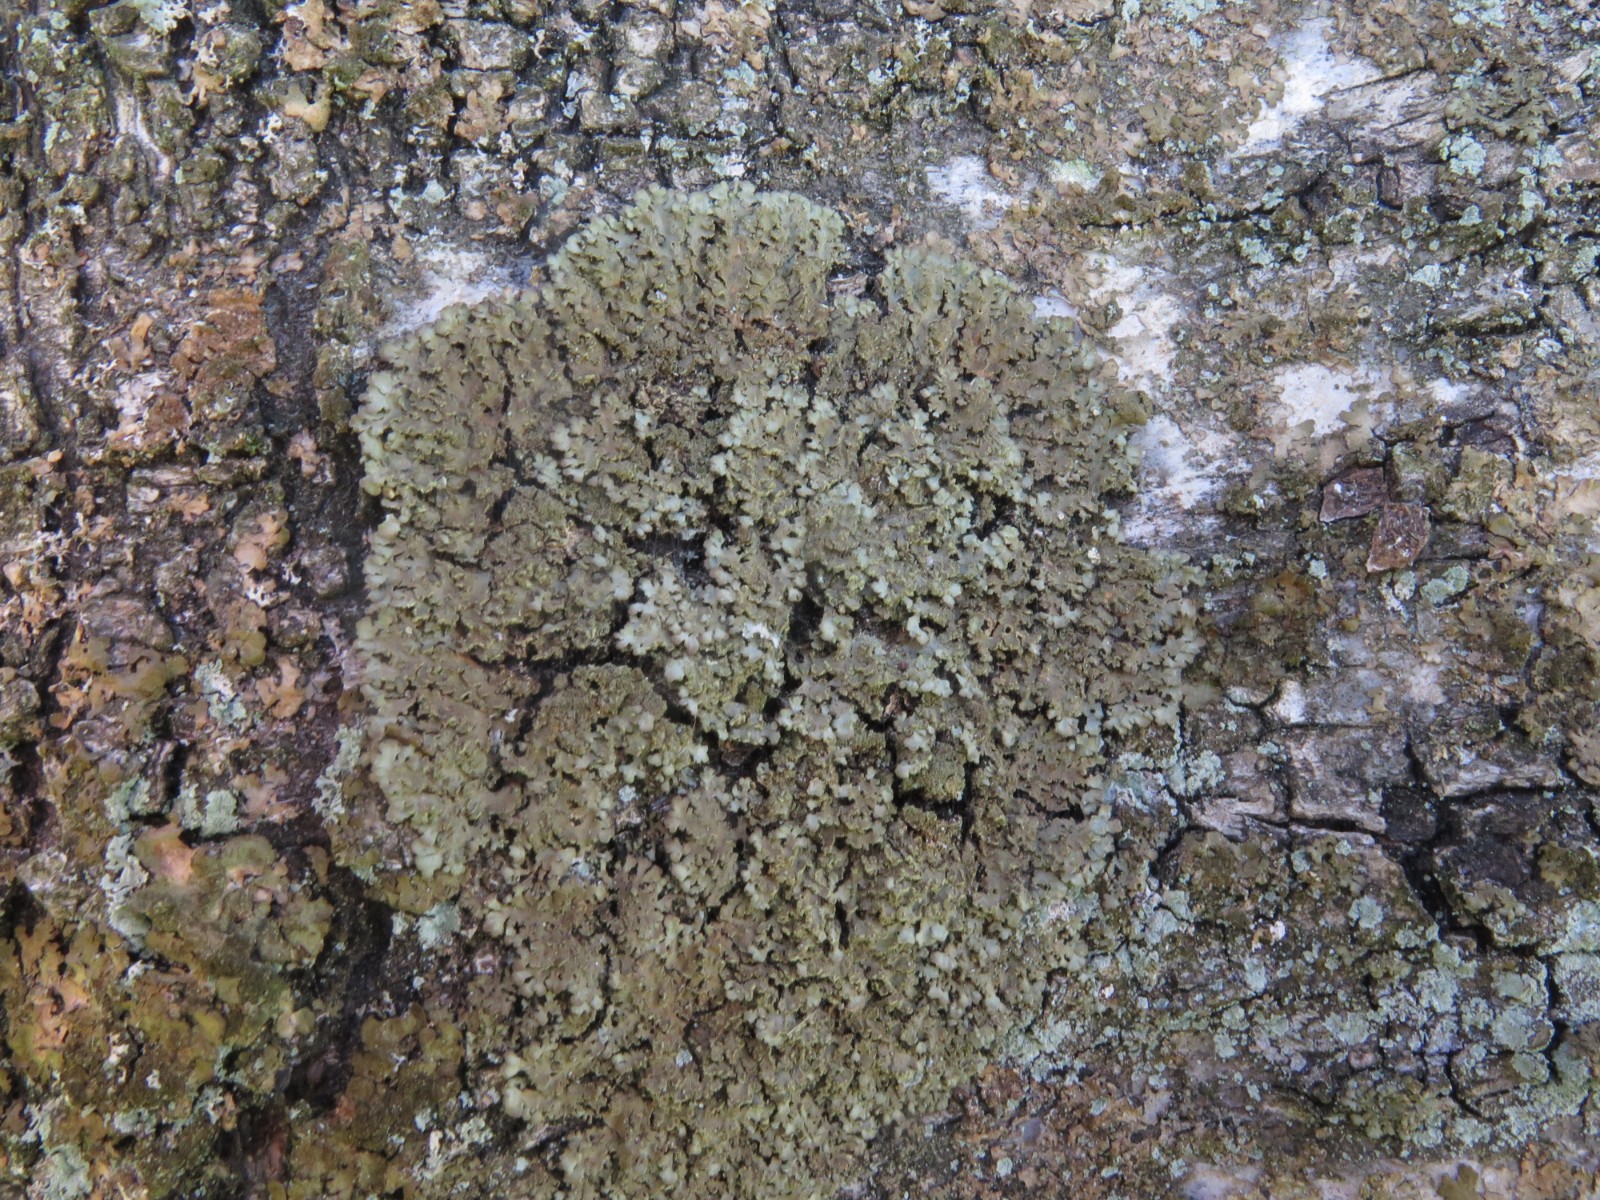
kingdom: Fungi
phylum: Ascomycota
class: Lecanoromycetes
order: Caliciales
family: Physciaceae
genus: Physconia
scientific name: Physconia enteroxantha
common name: grynet dugrosetlav
